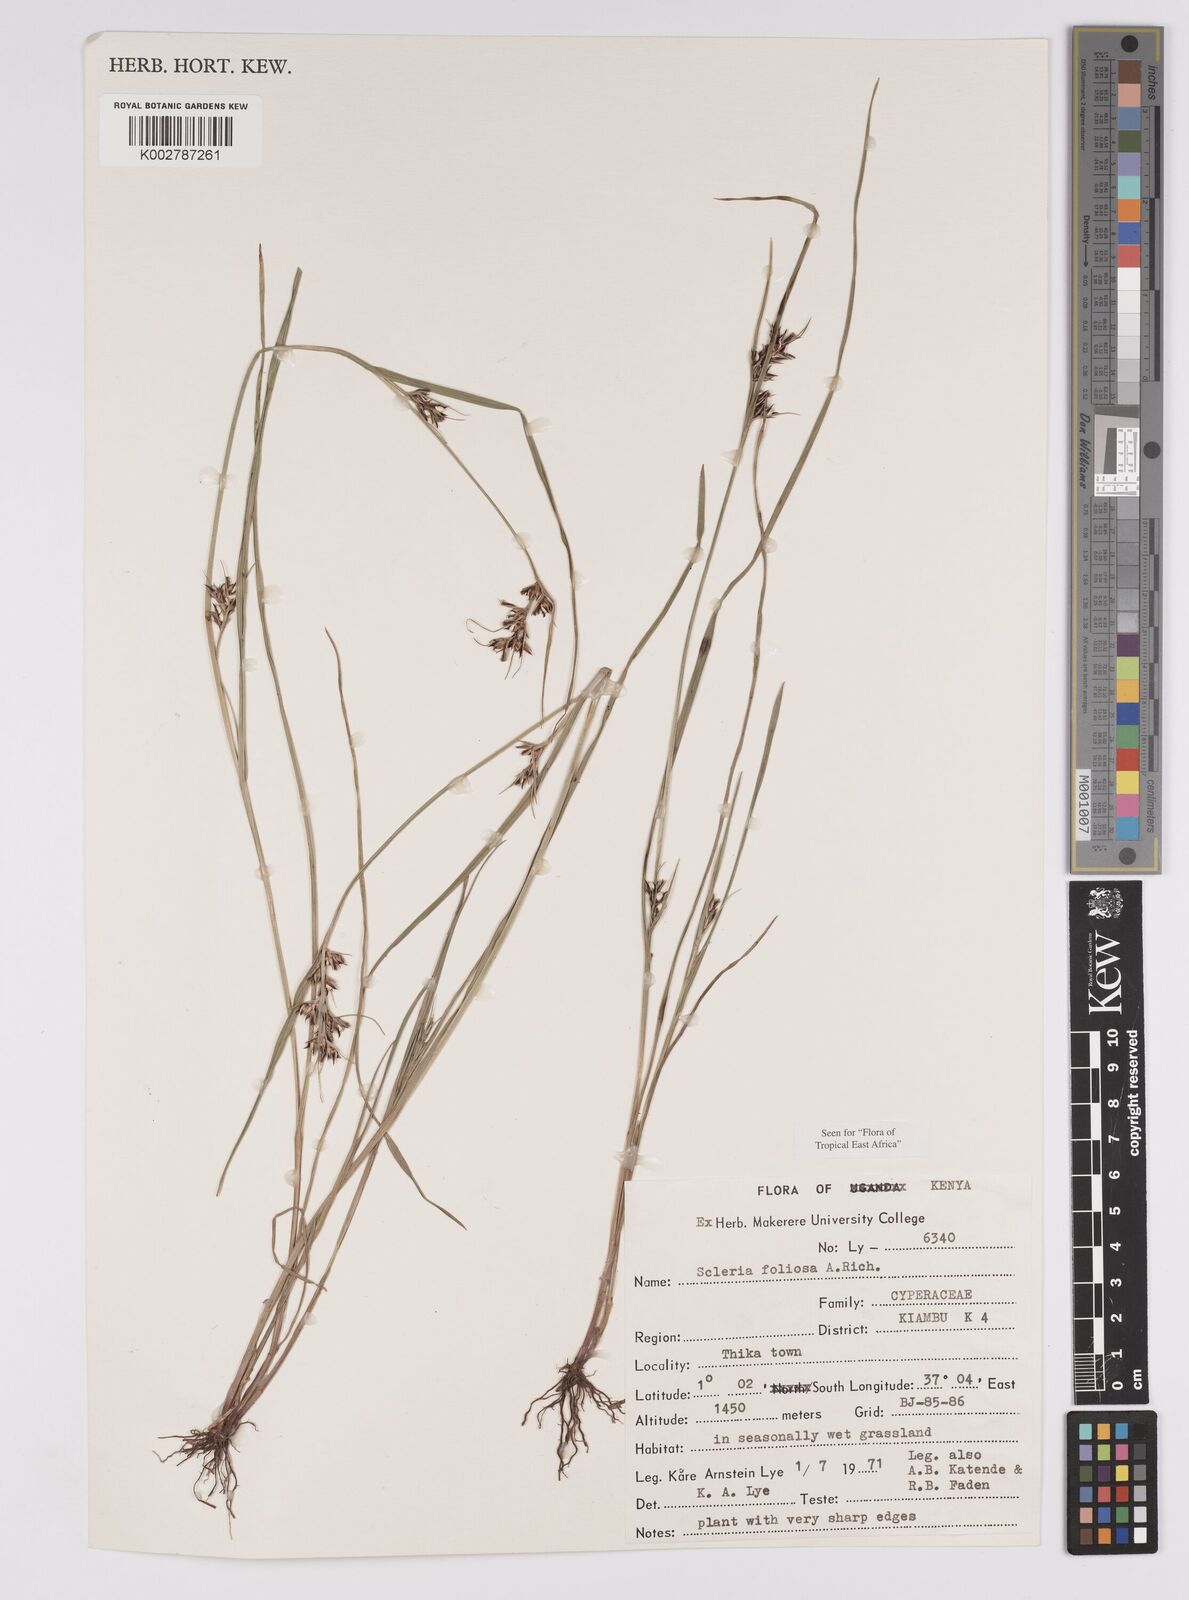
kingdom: Plantae
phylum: Tracheophyta
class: Liliopsida
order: Poales
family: Cyperaceae
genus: Scleria
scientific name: Scleria foliosa
